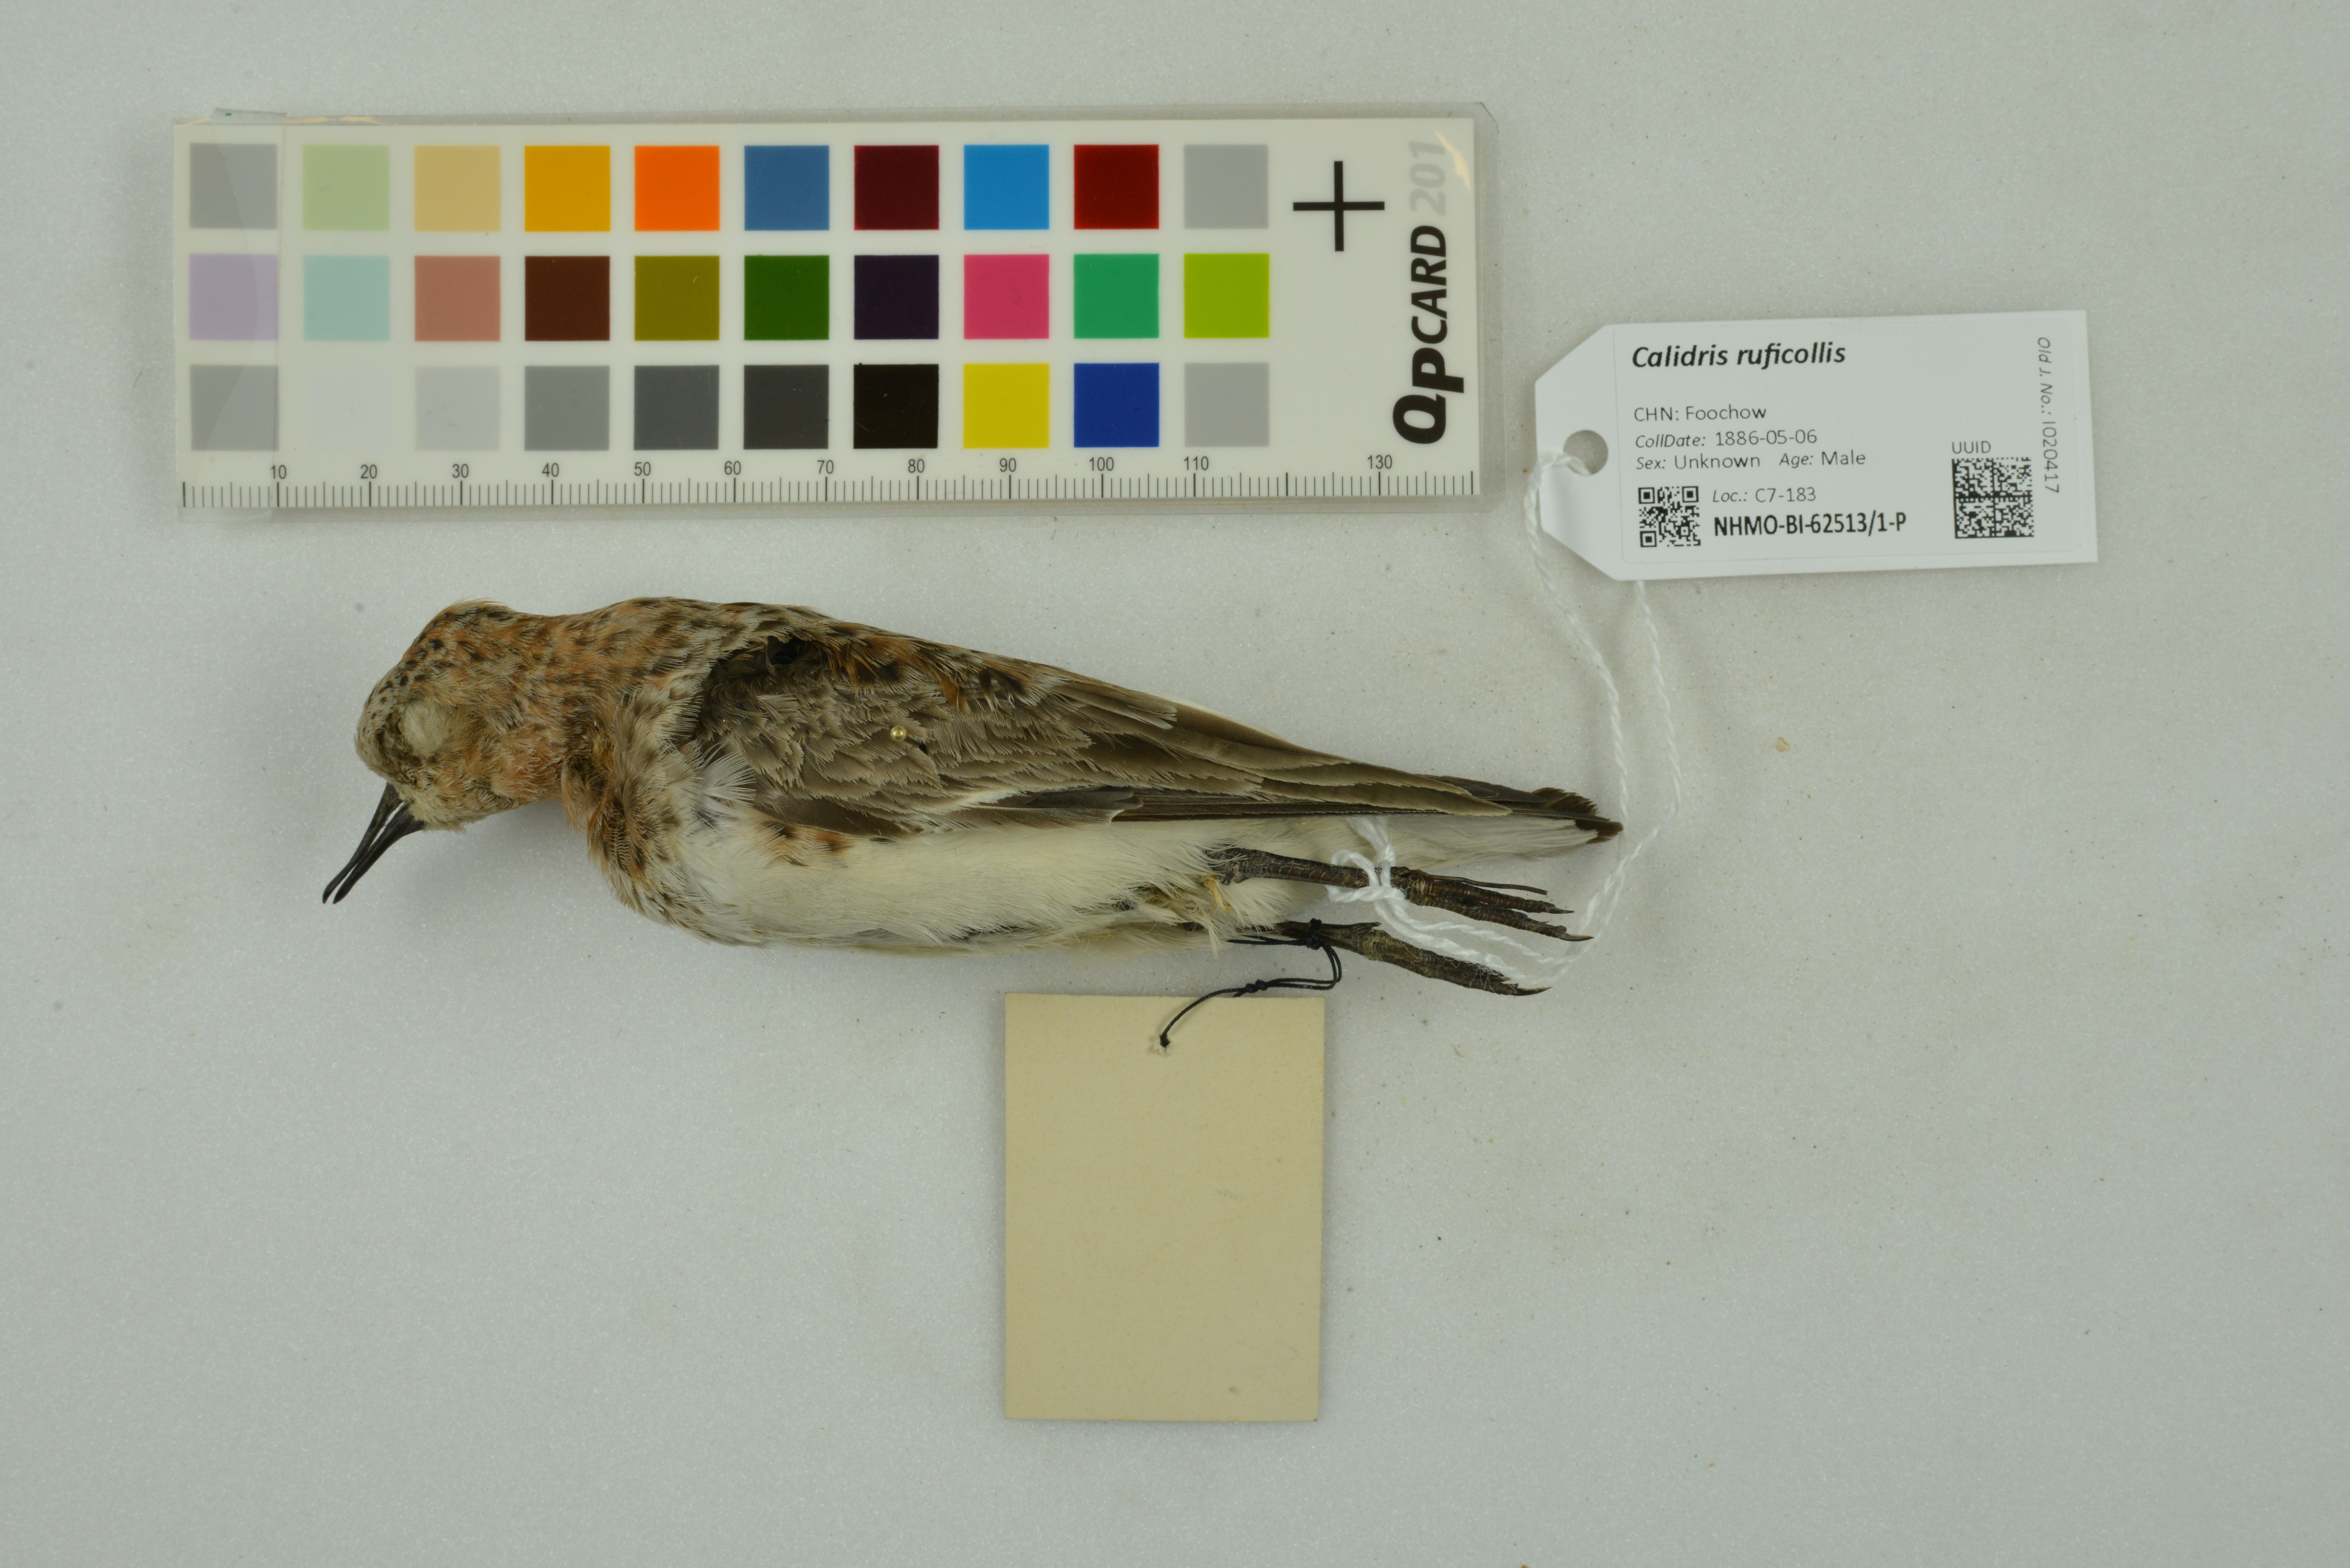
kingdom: Animalia
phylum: Chordata
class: Aves
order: Charadriiformes
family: Scolopacidae
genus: Calidris
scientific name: Calidris ruficollis
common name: Red-necked stint
